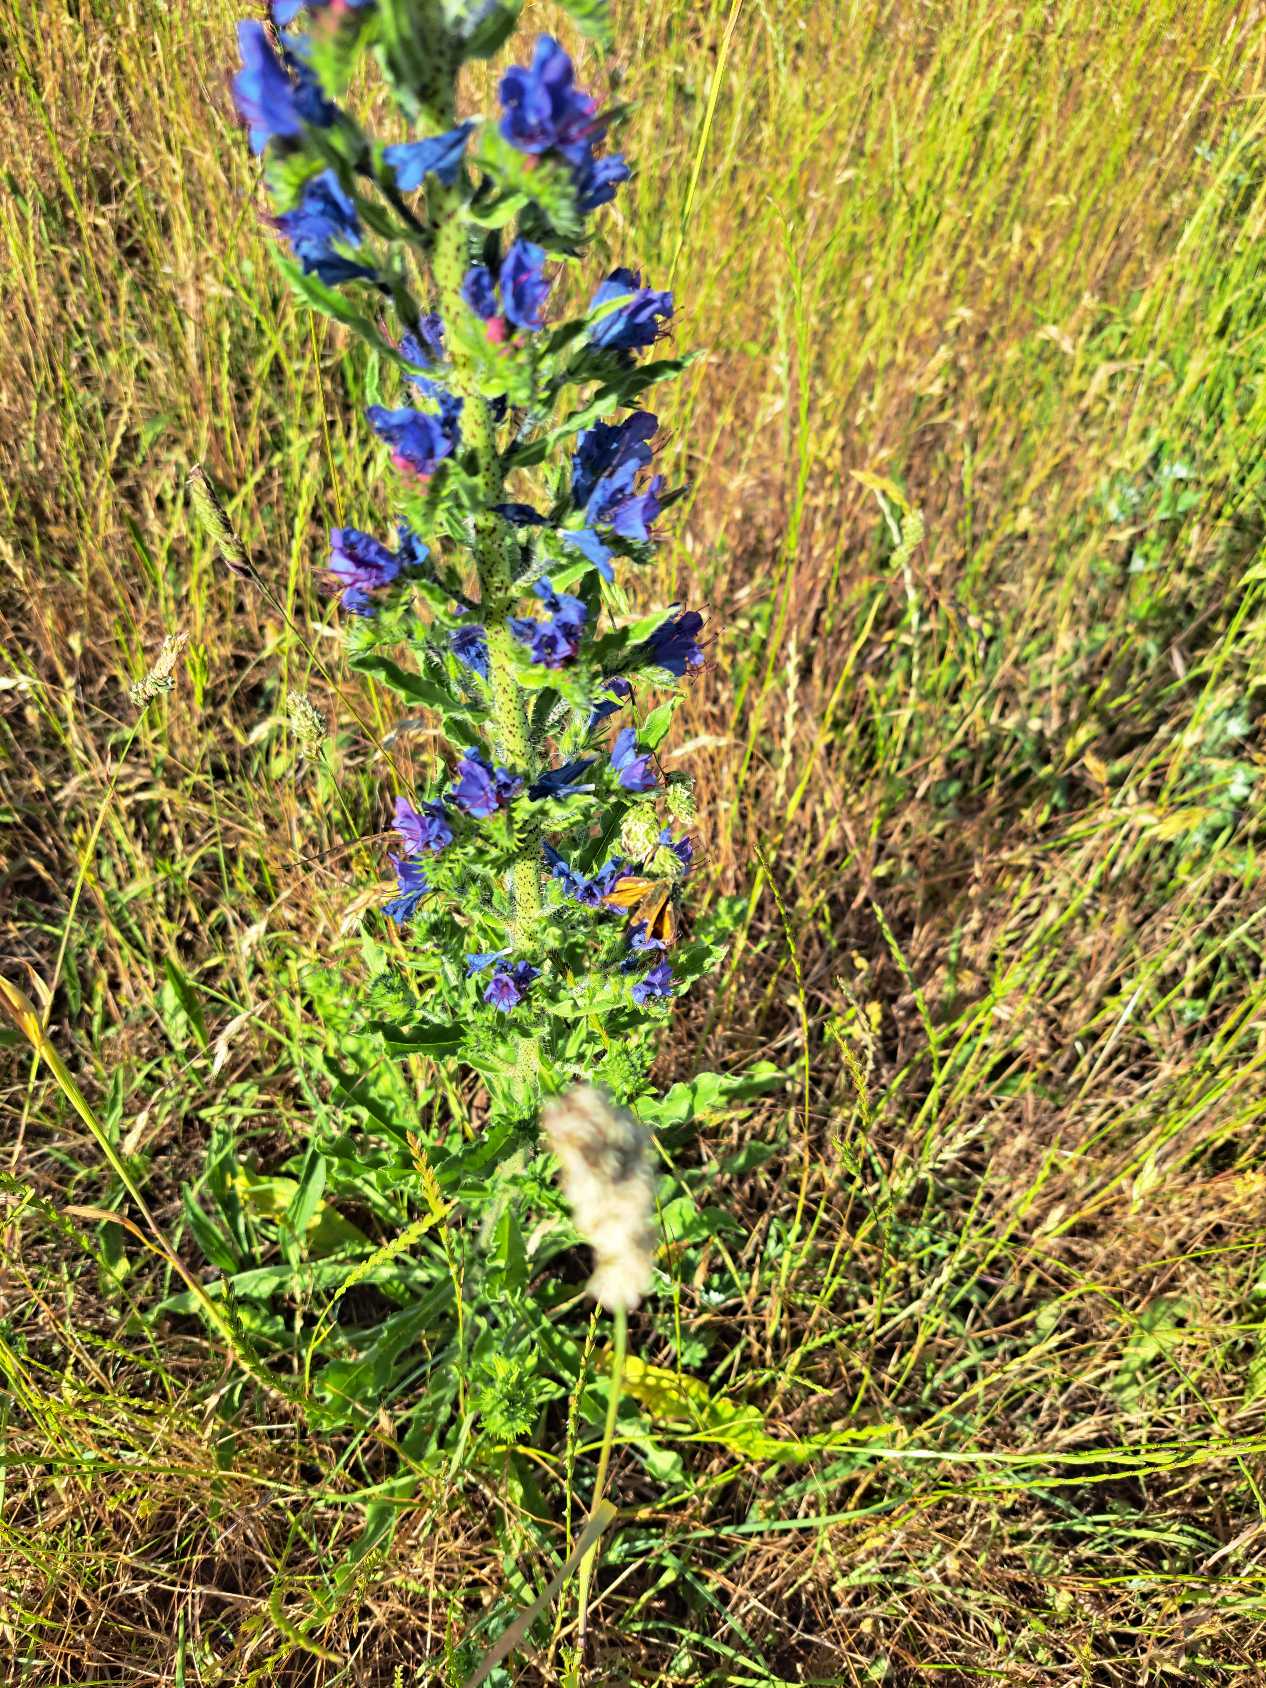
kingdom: Animalia
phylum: Arthropoda
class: Insecta
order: Lepidoptera
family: Hesperiidae
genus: Ochlodes
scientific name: Ochlodes venata
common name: Stor bredpande
